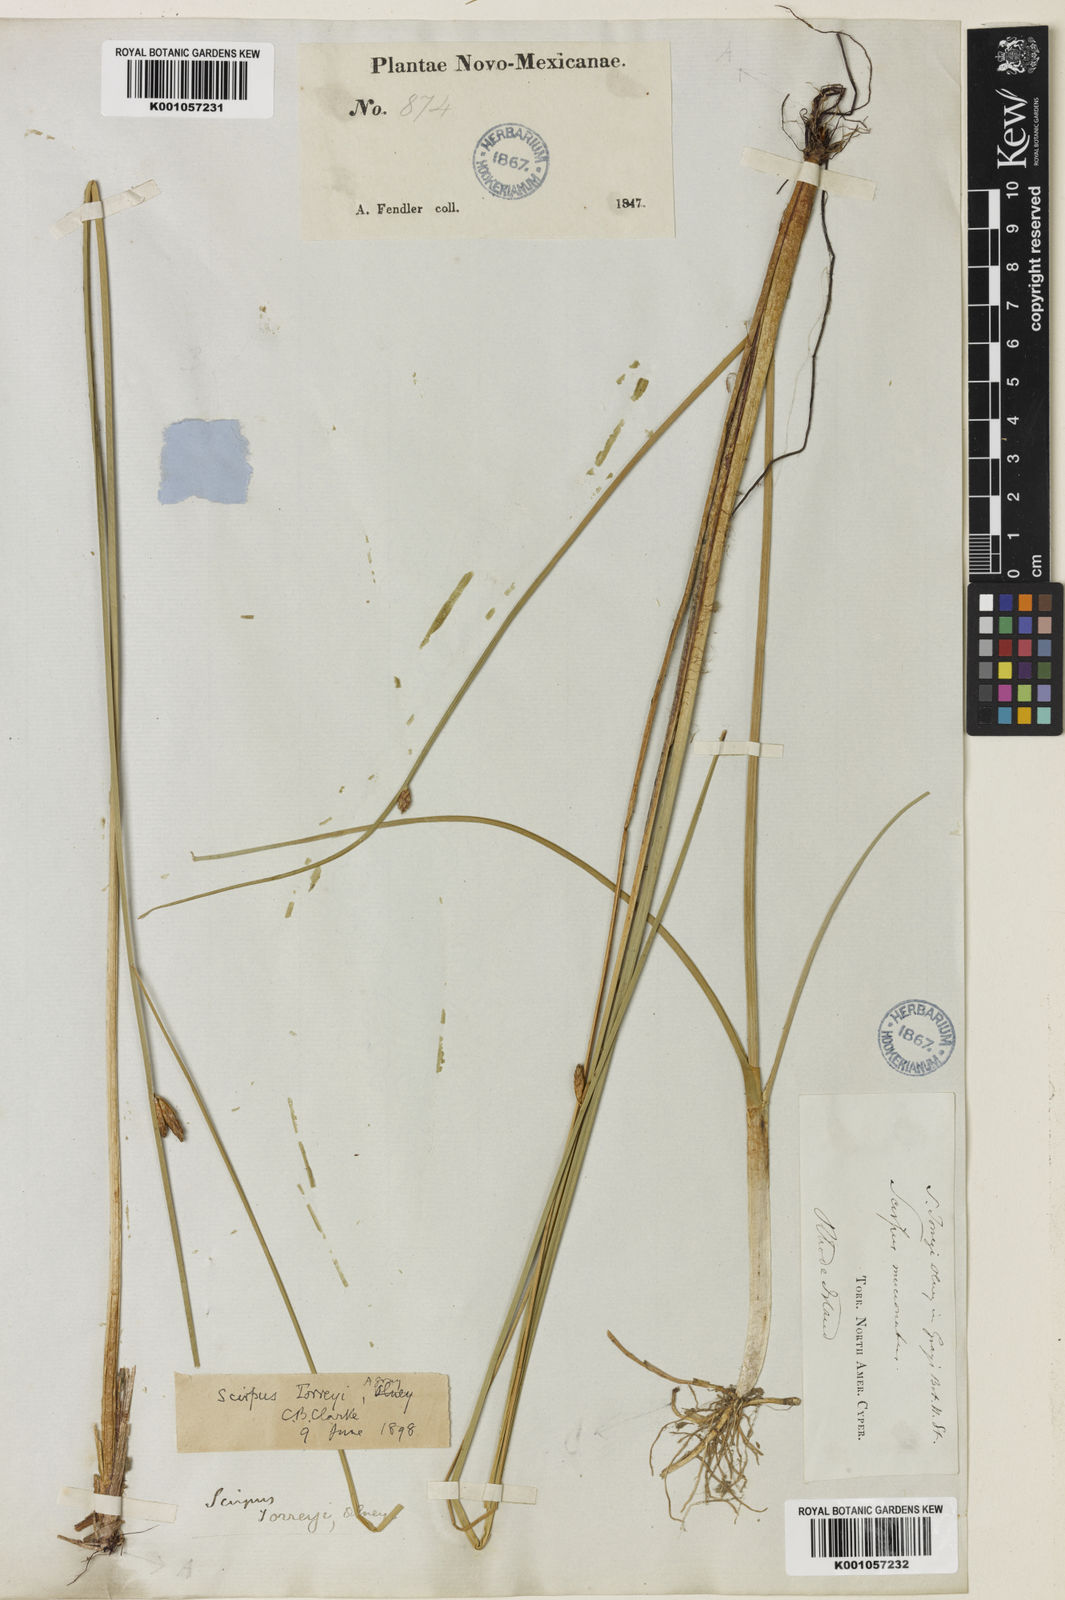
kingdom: Plantae
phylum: Tracheophyta
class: Liliopsida
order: Poales
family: Cyperaceae
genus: Schoenoplectus
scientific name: Schoenoplectus torreyi
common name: Torrey's bulrush
